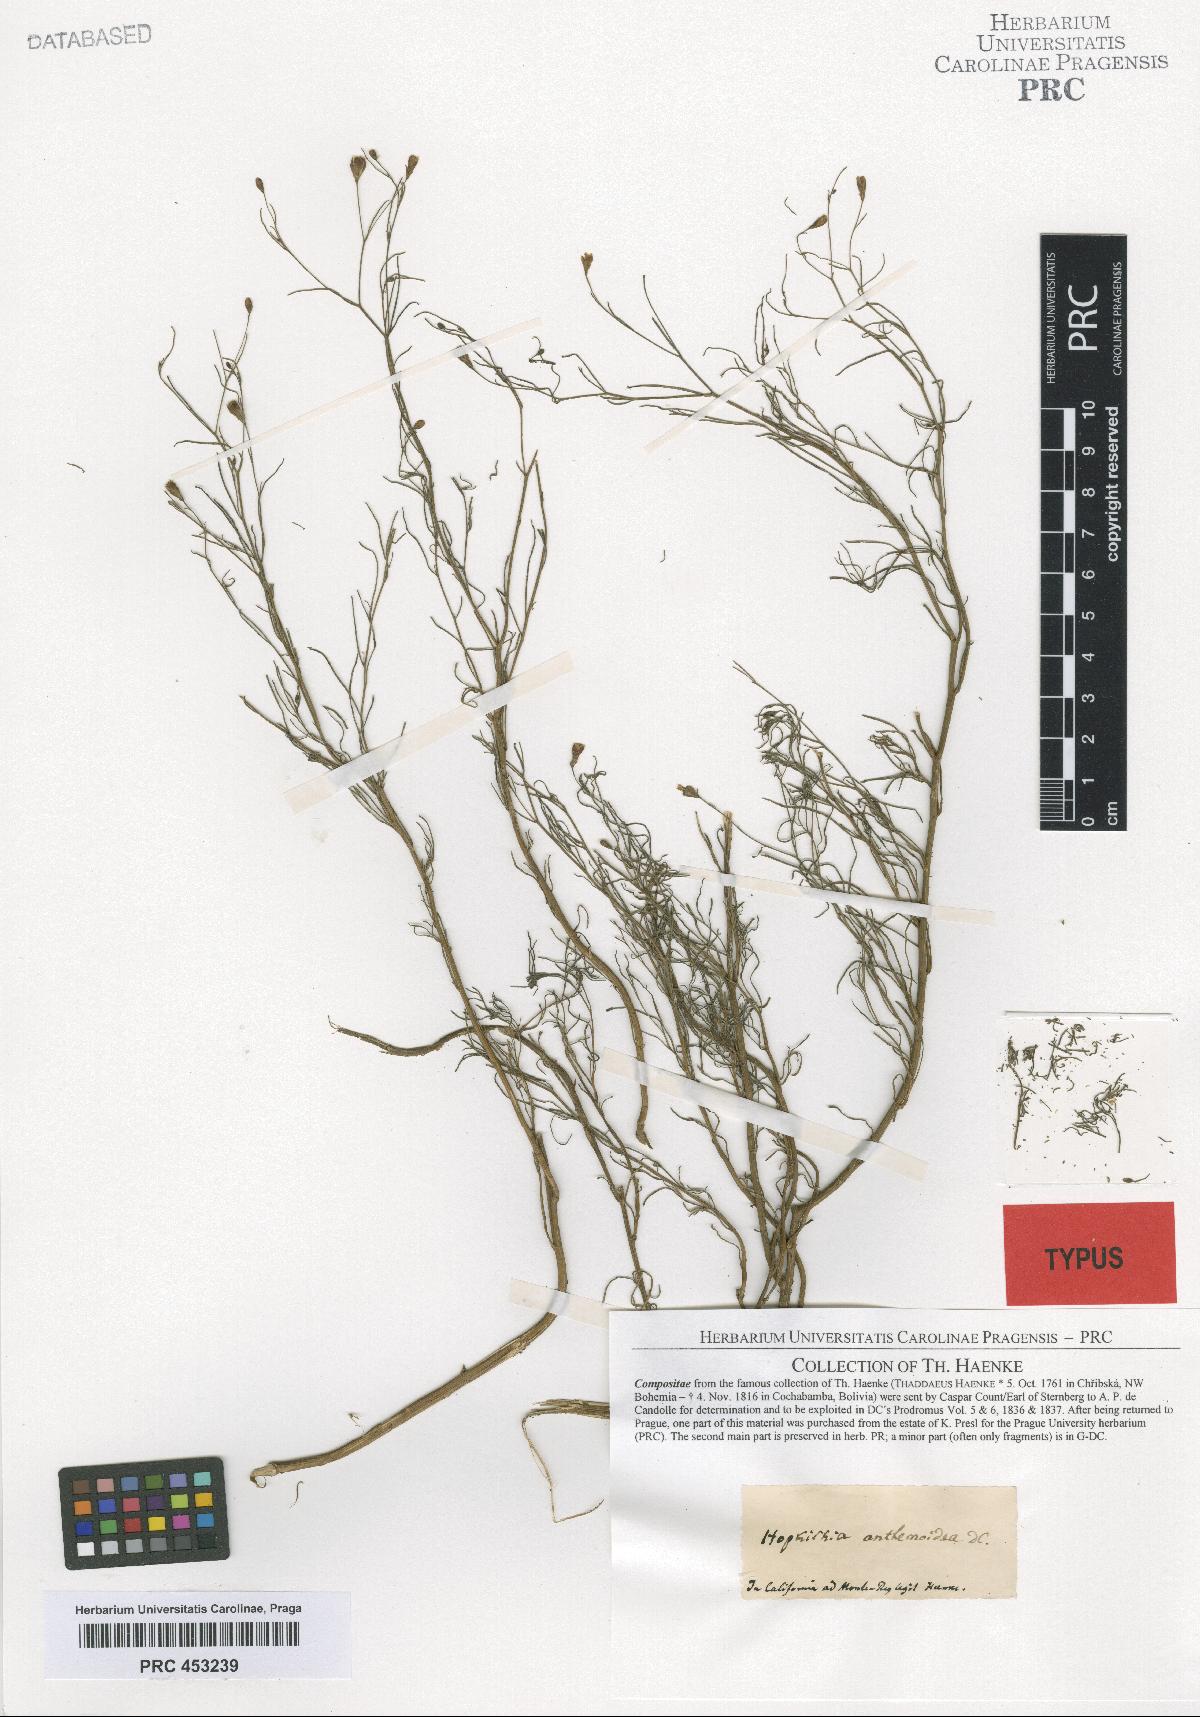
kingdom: Plantae
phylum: Tracheophyta
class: Magnoliopsida
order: Asterales
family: Asteraceae
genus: Schkuhria
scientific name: Schkuhria pinnata
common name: Dwarf marigold
